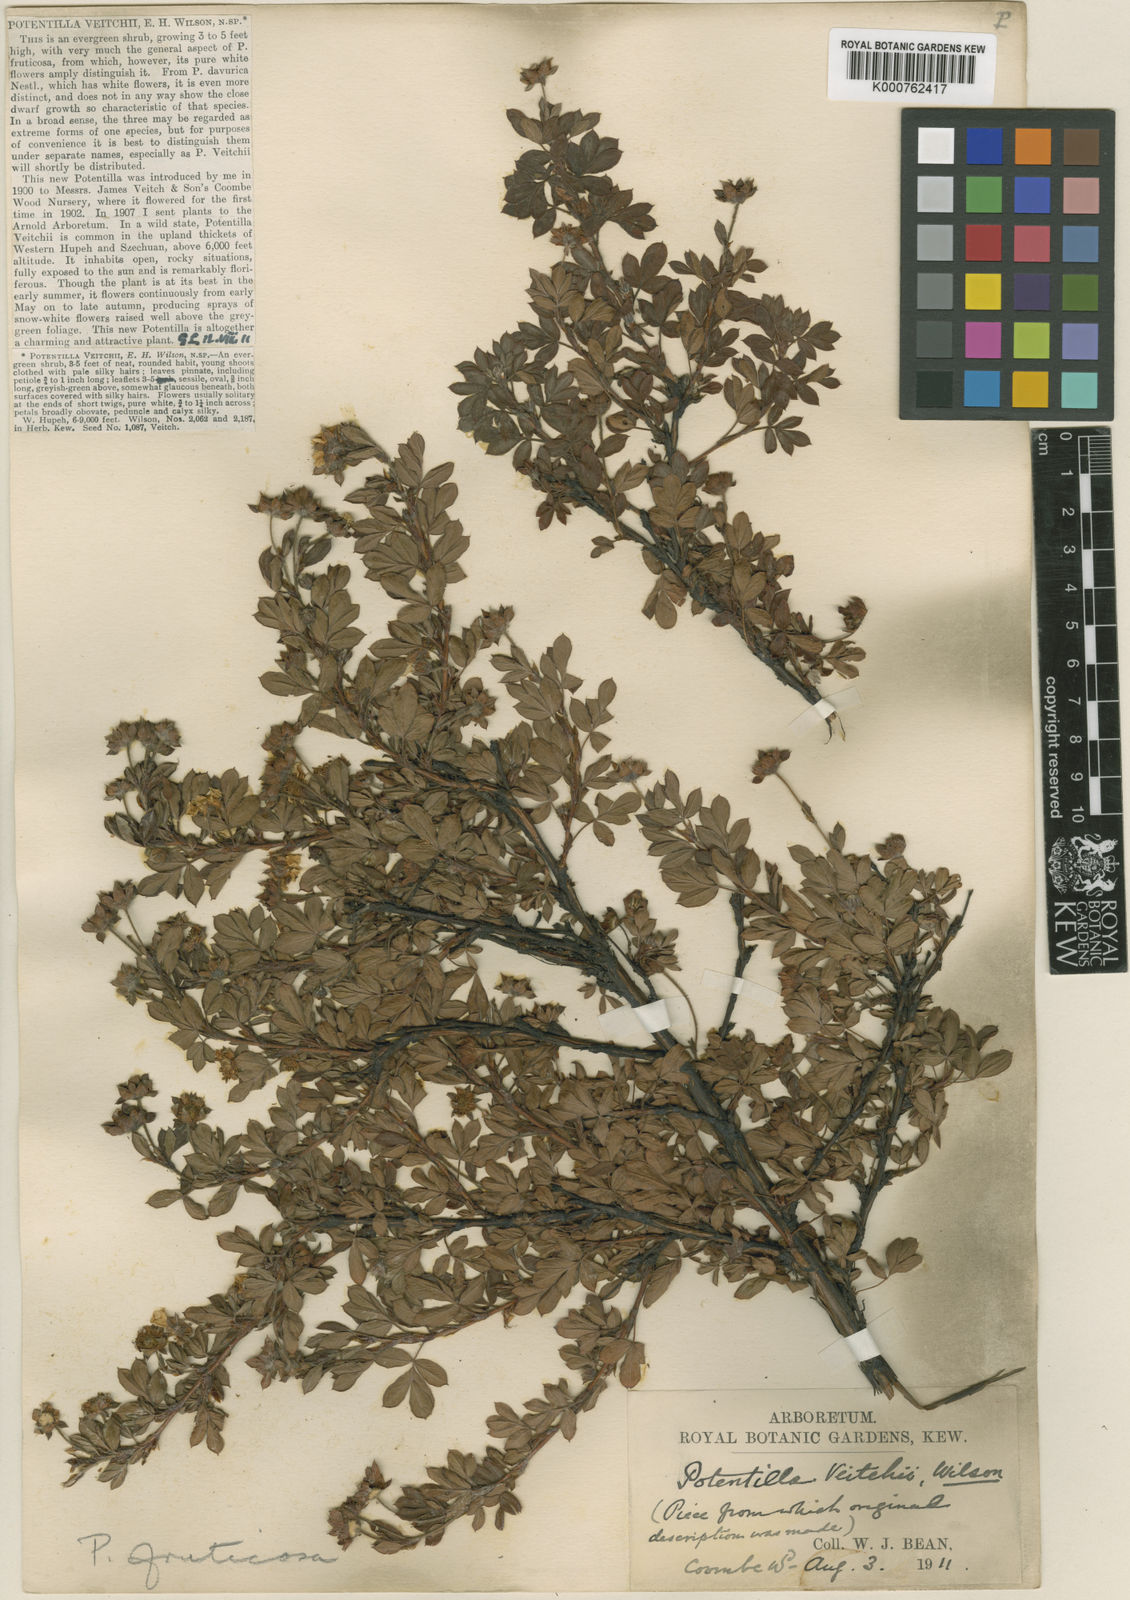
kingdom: Plantae
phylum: Tracheophyta
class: Magnoliopsida
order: Rosales
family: Rosaceae
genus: Dasiphora
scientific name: Dasiphora fruticosa
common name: Shrubby cinquefoil
